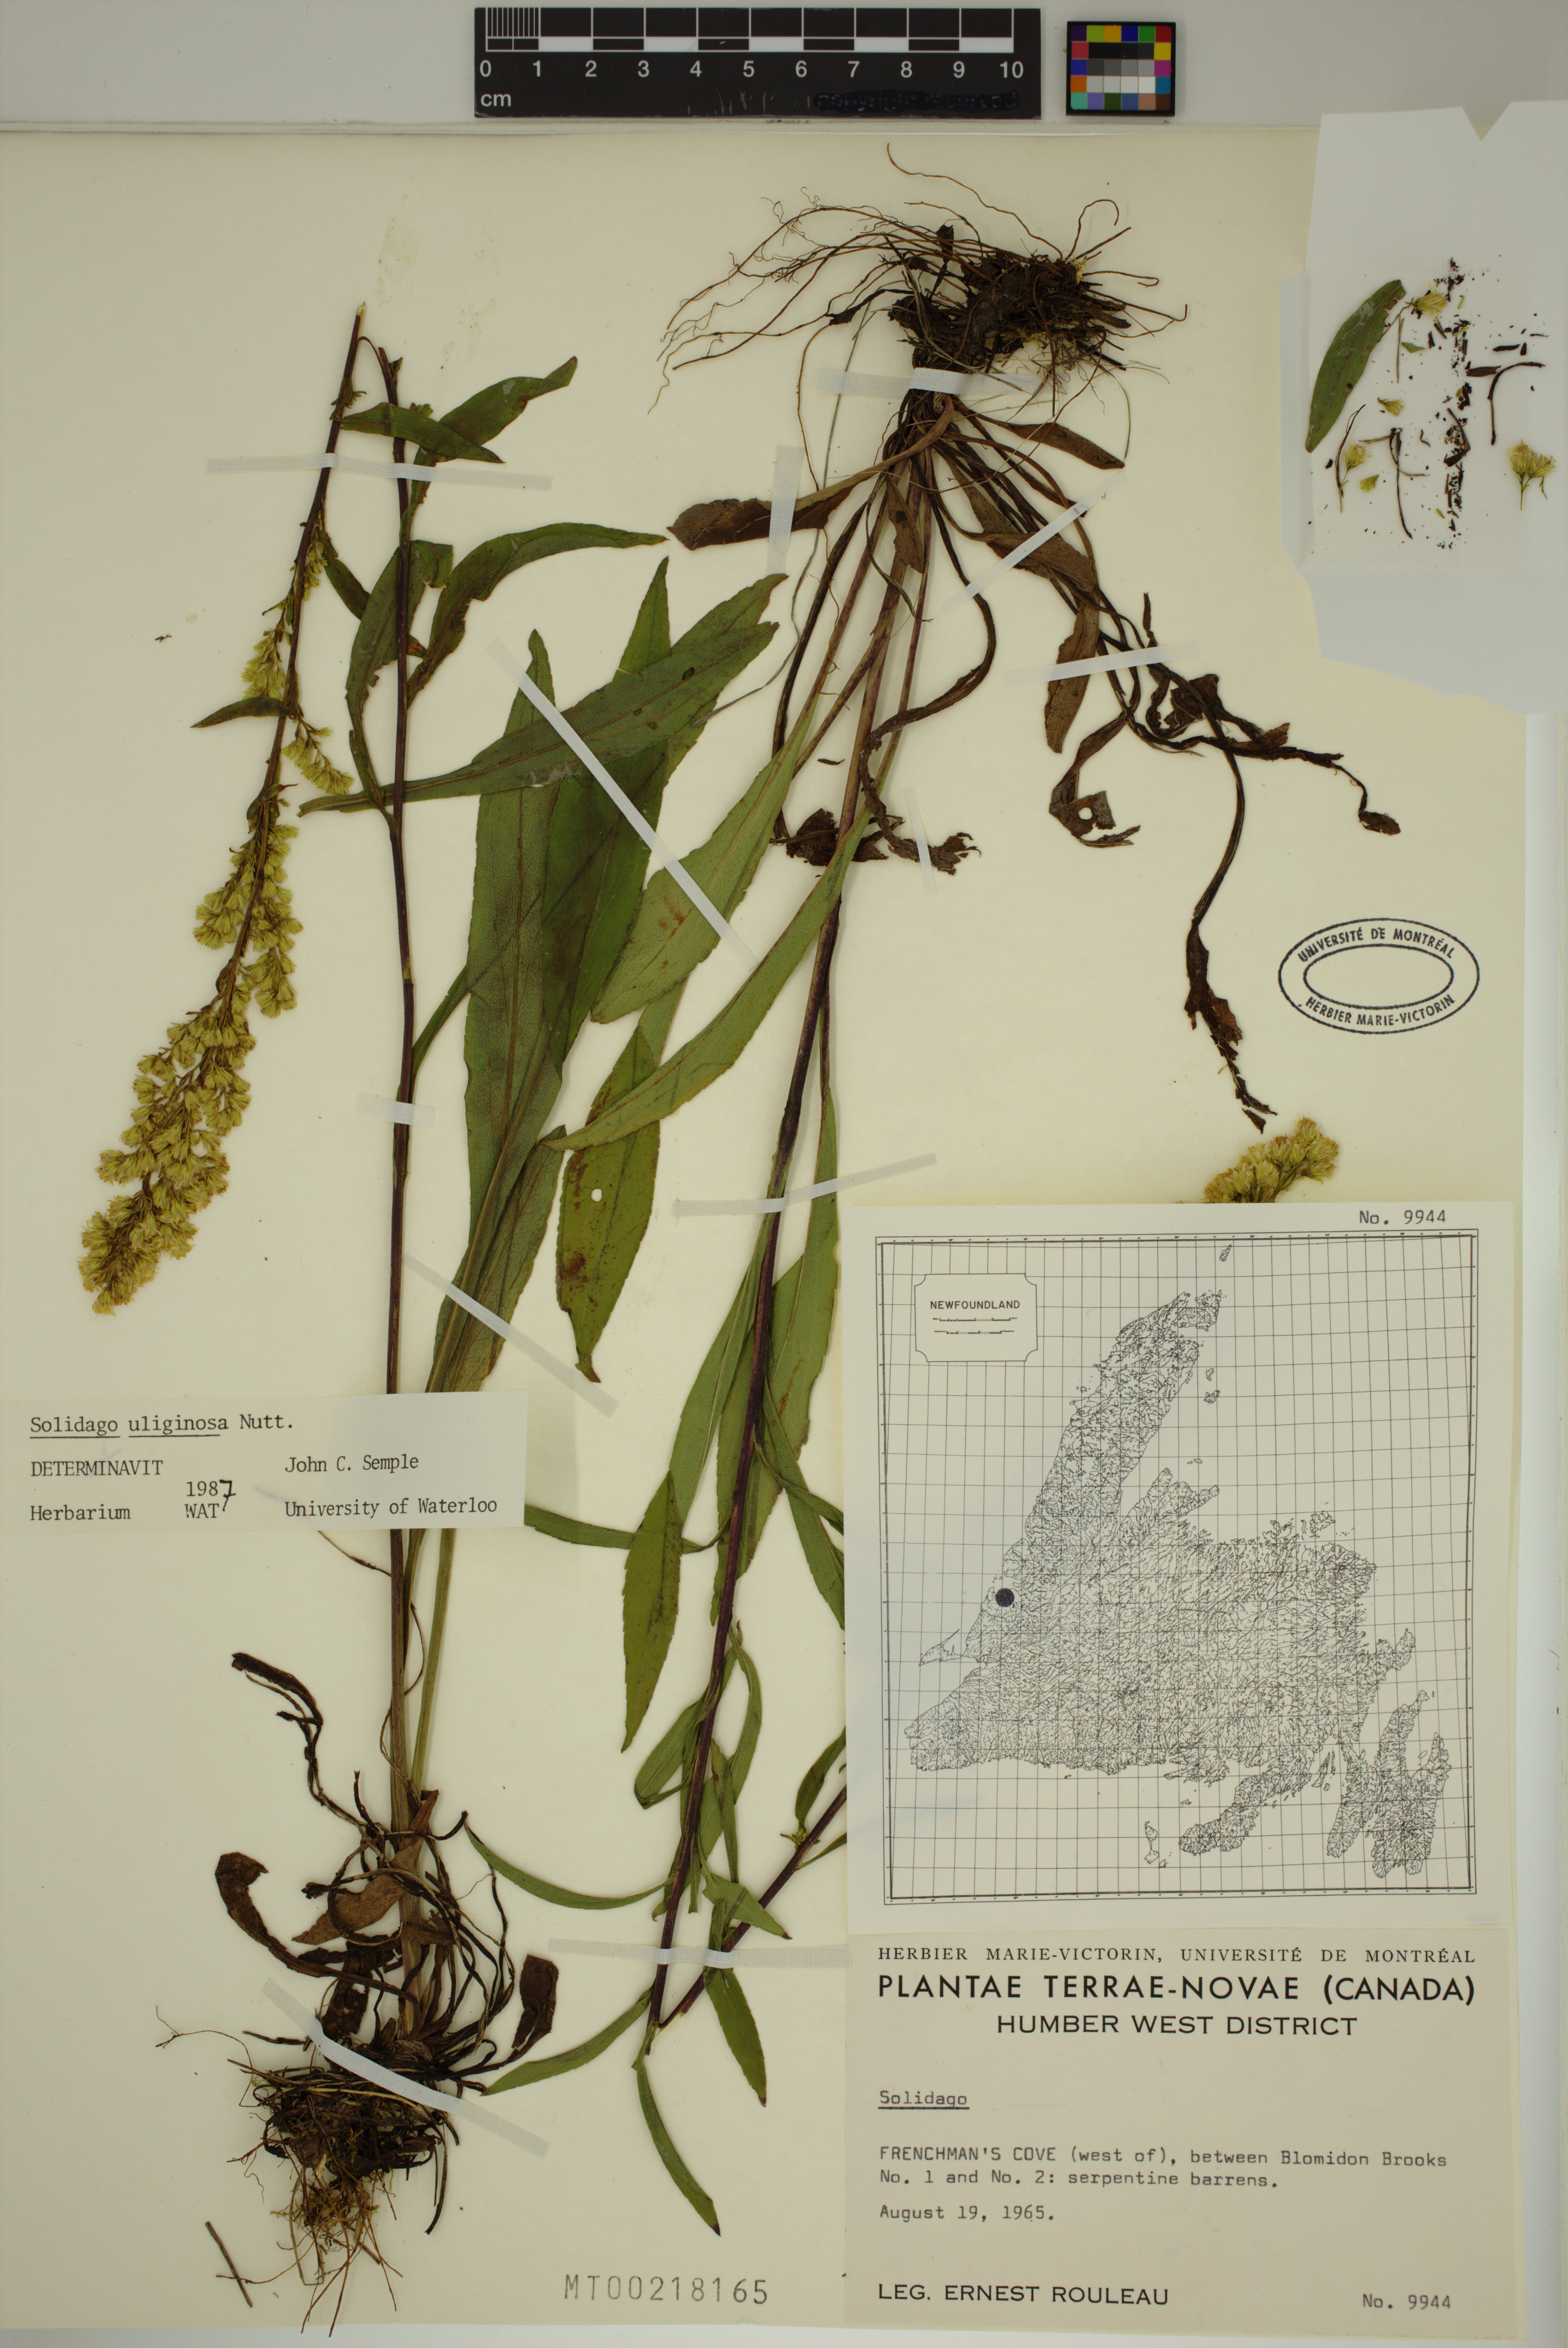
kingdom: Plantae
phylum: Tracheophyta
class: Magnoliopsida
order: Asterales
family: Asteraceae
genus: Solidago
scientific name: Solidago uliginosa
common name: Bog goldenrod
